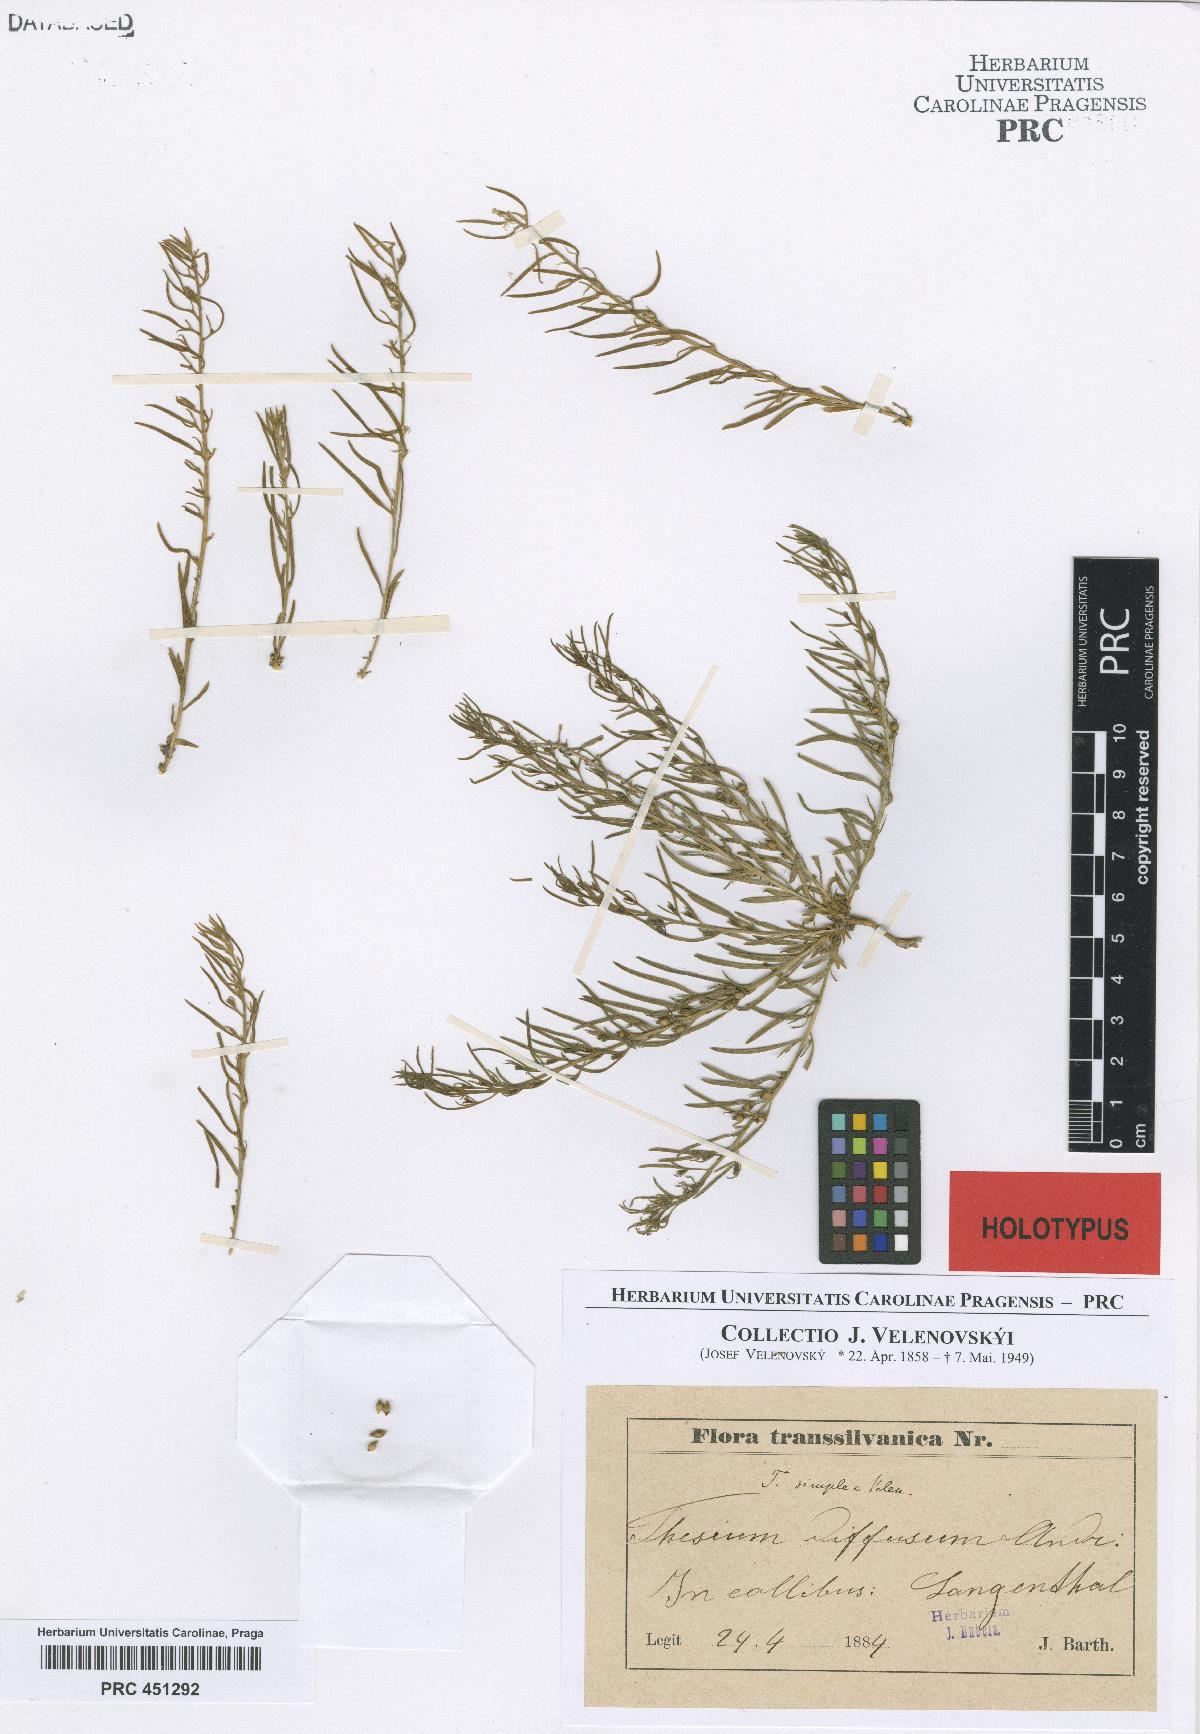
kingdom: Plantae
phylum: Tracheophyta
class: Magnoliopsida
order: Santalales
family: Thesiaceae
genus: Thesium
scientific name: Thesium dollineri
